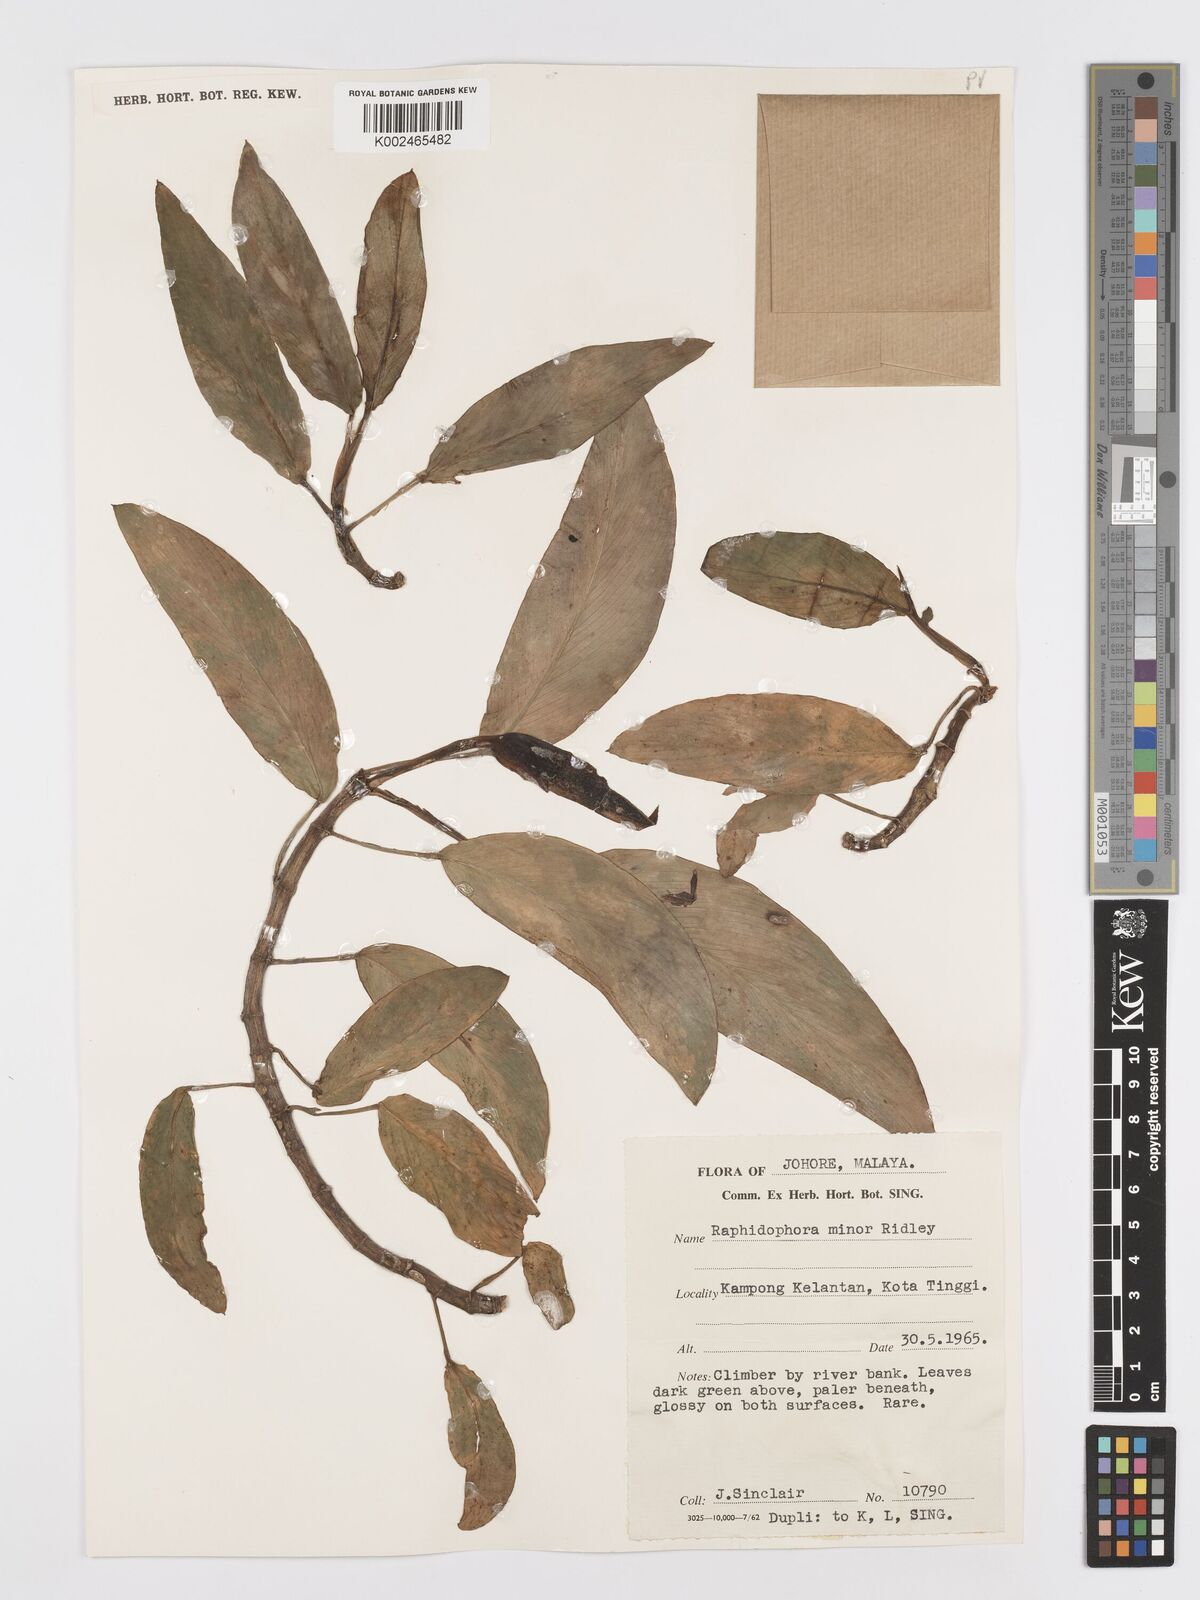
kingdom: Plantae
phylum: Tracheophyta
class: Liliopsida
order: Alismatales
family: Araceae
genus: Rhaphidophora
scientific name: Rhaphidophora minor
